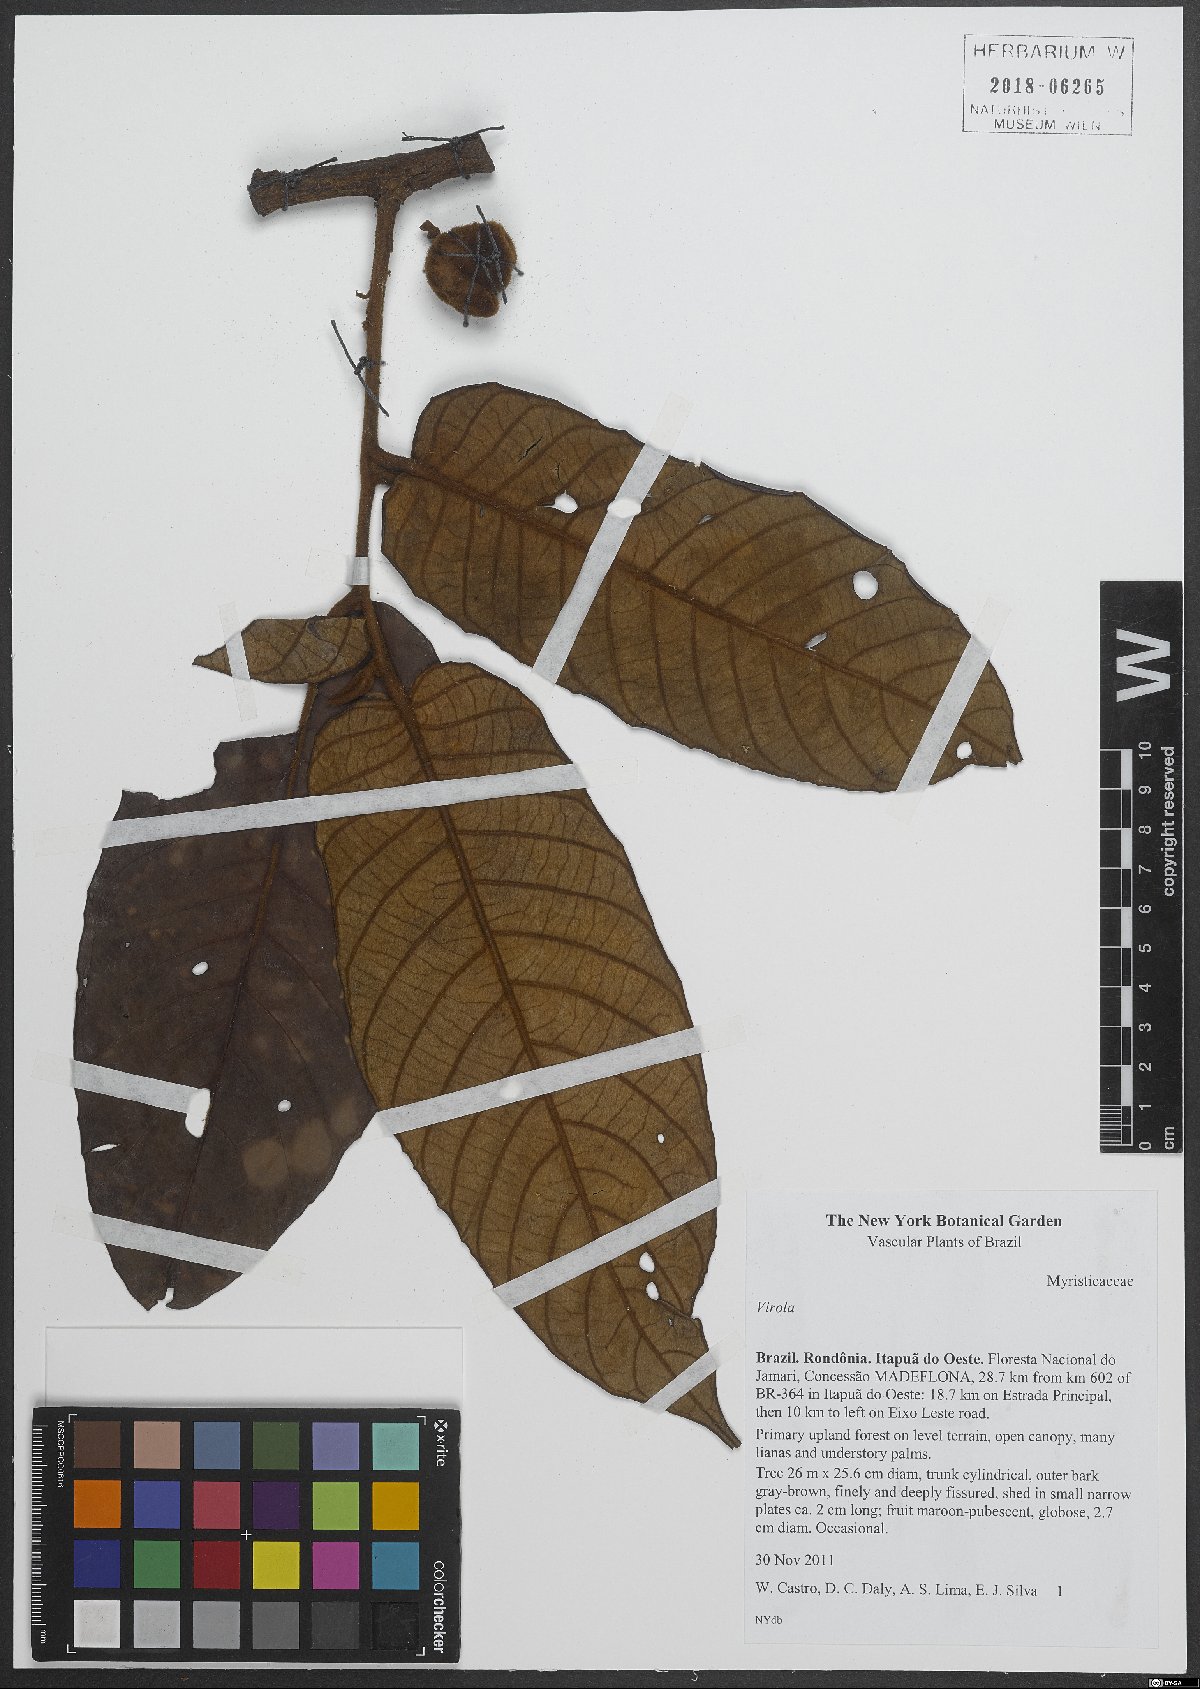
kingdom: Plantae
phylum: Tracheophyta
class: Magnoliopsida
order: Magnoliales
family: Myristicaceae
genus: Virola
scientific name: Virola
